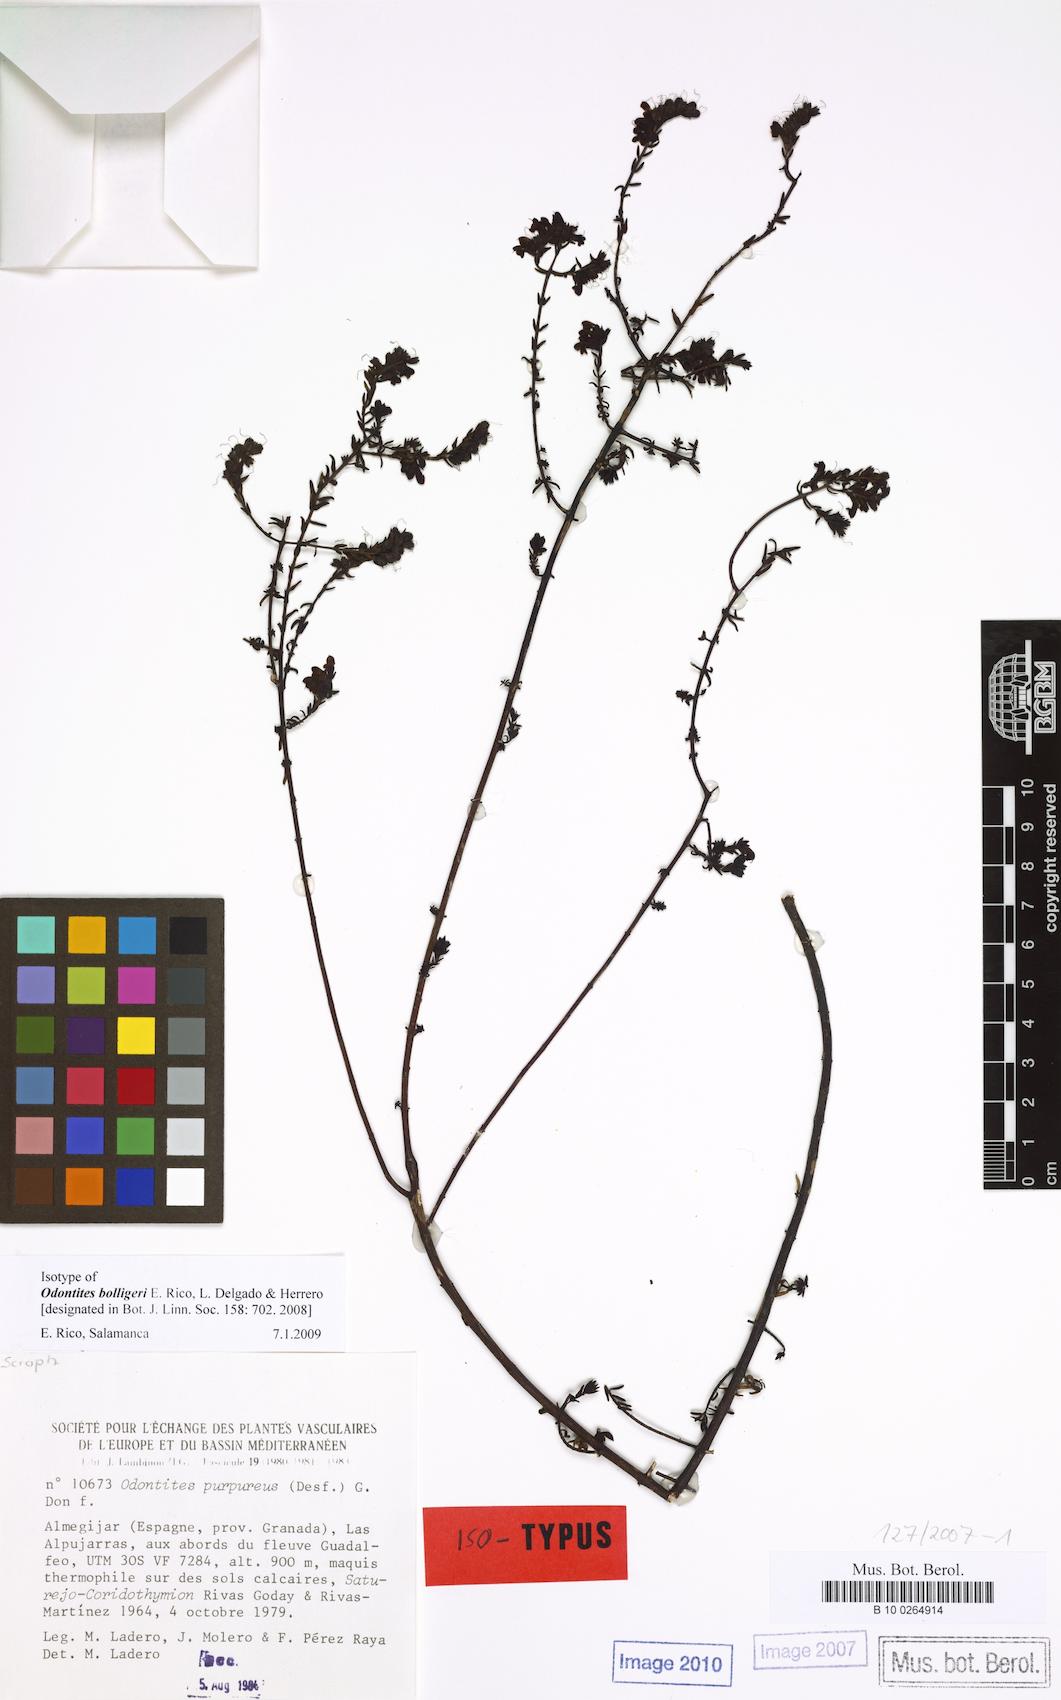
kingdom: Plantae
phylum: Tracheophyta
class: Magnoliopsida
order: Lamiales
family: Orobanchaceae
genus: Odontites
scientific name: Odontites bolligeri
